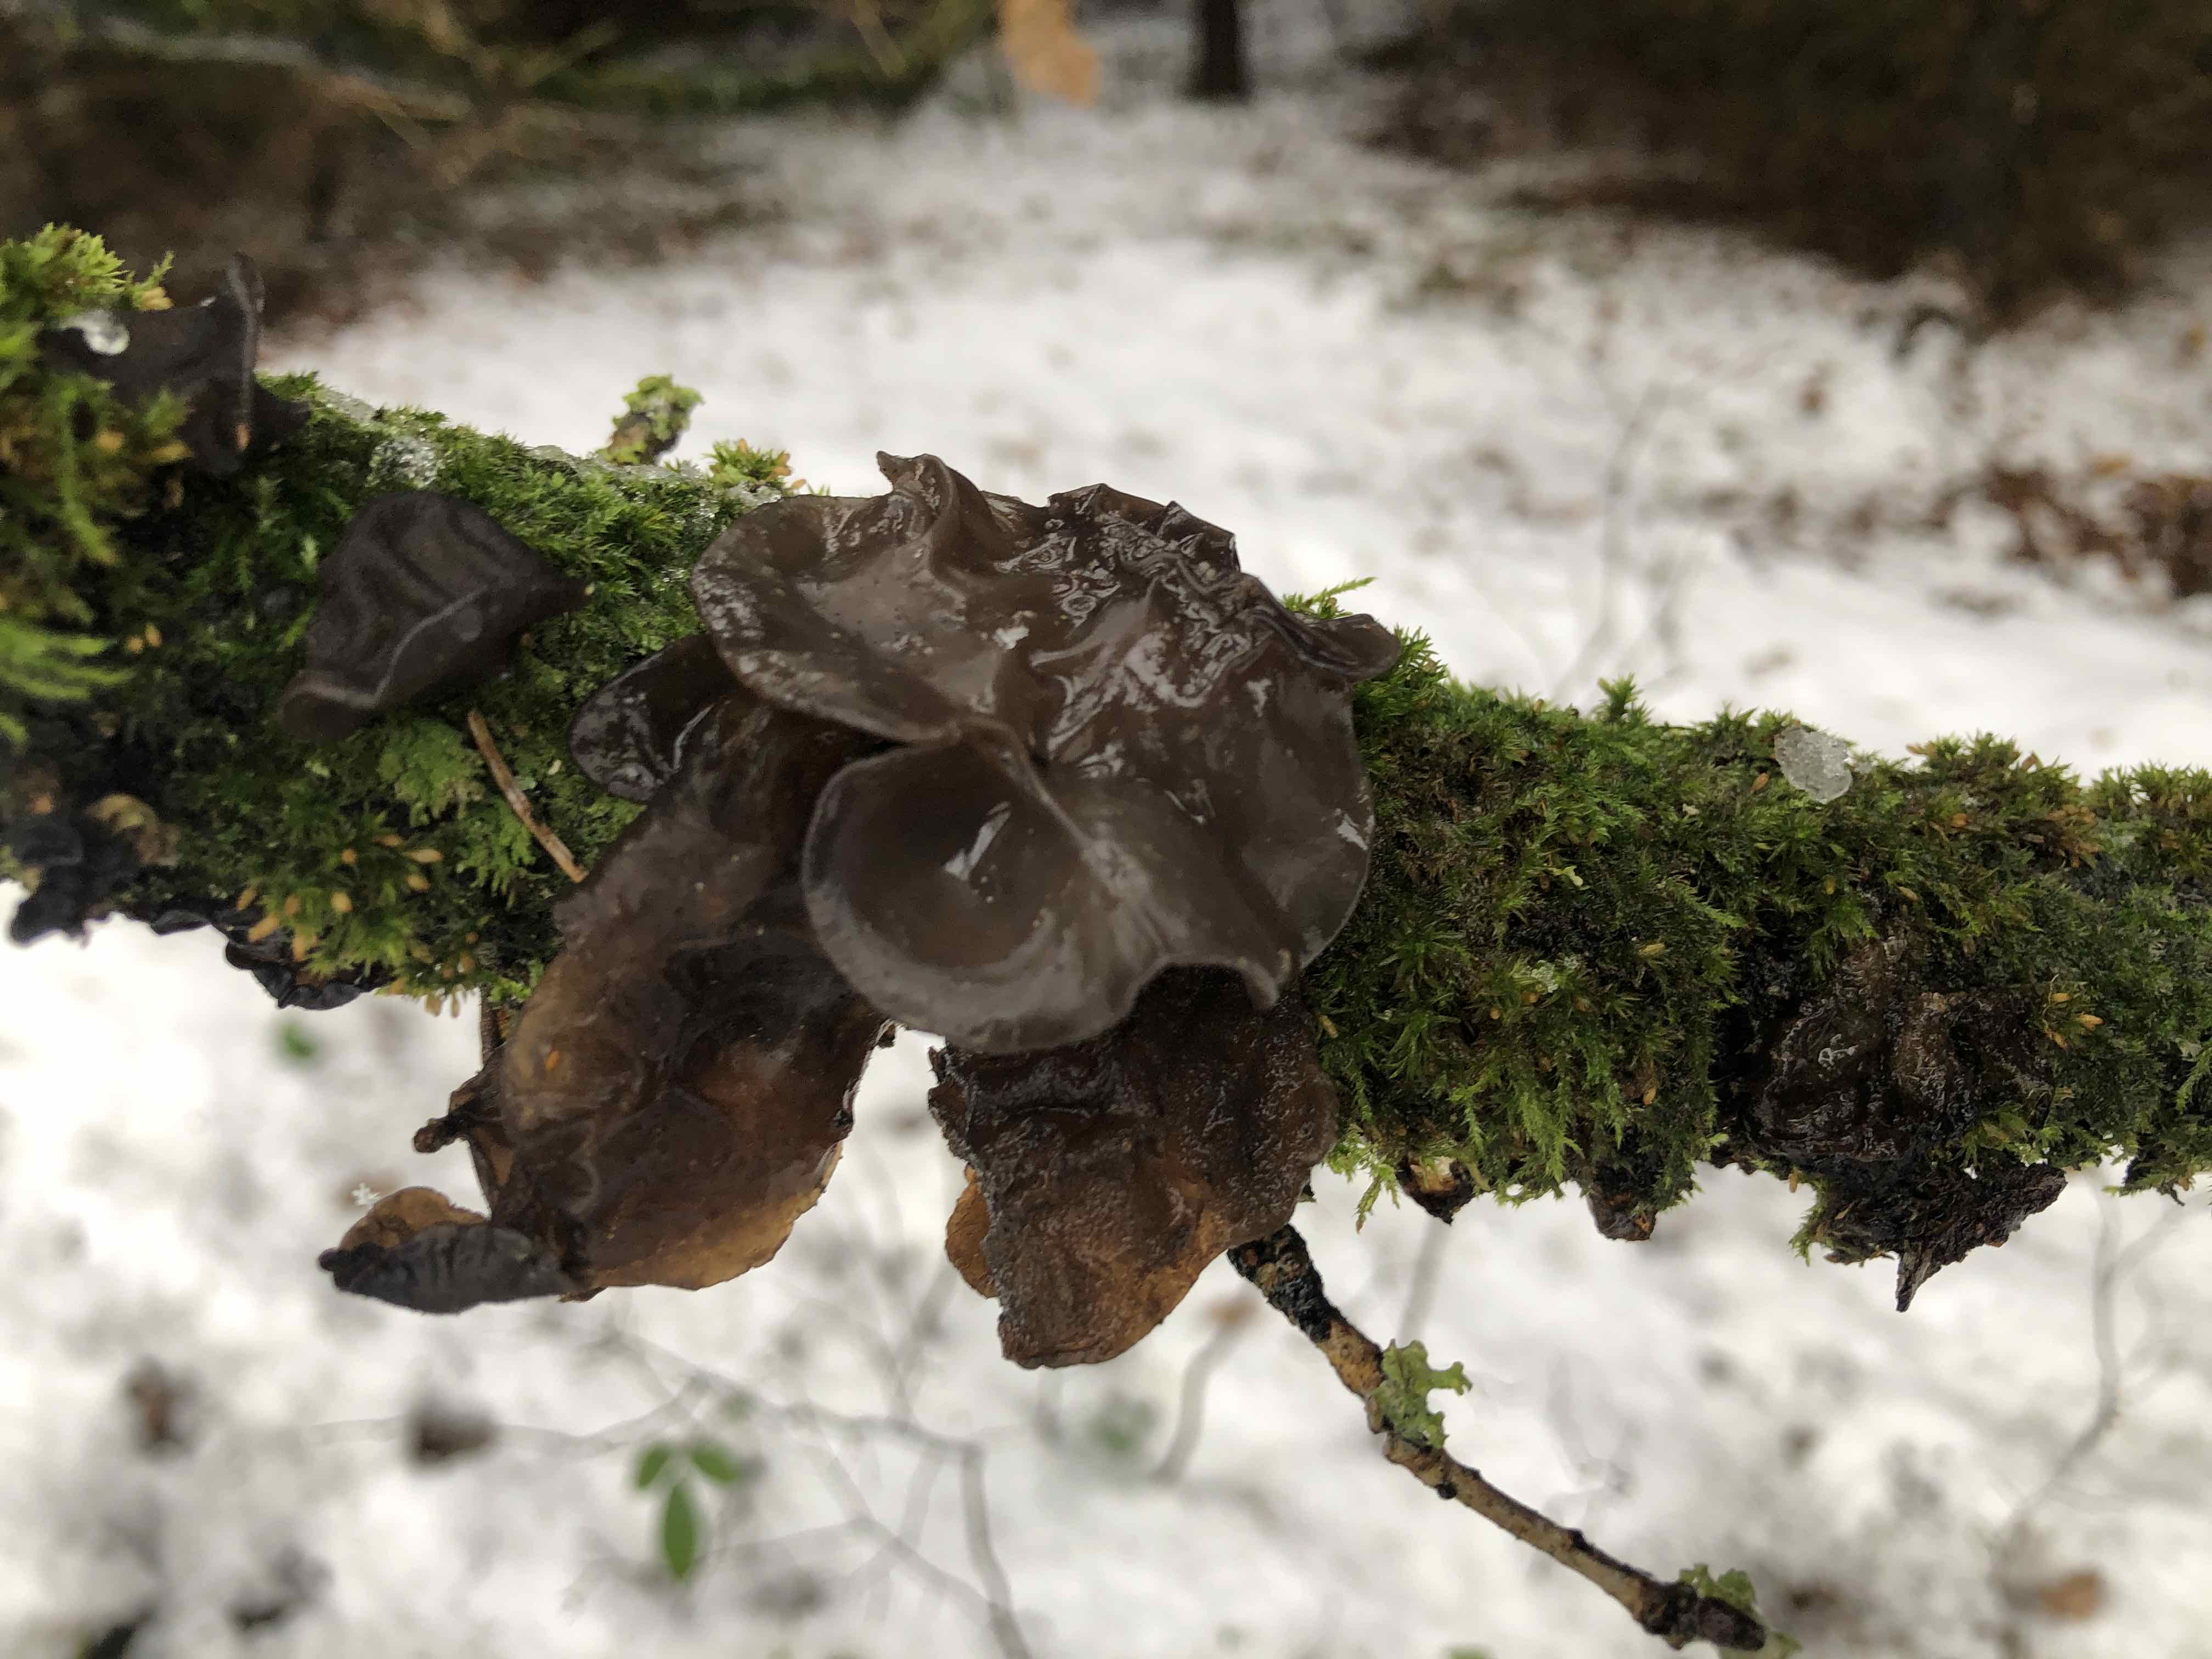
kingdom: Fungi
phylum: Basidiomycota
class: Agaricomycetes
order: Auriculariales
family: Auriculariaceae
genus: Exidia
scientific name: Exidia glandulosa
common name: ege-bævretop
